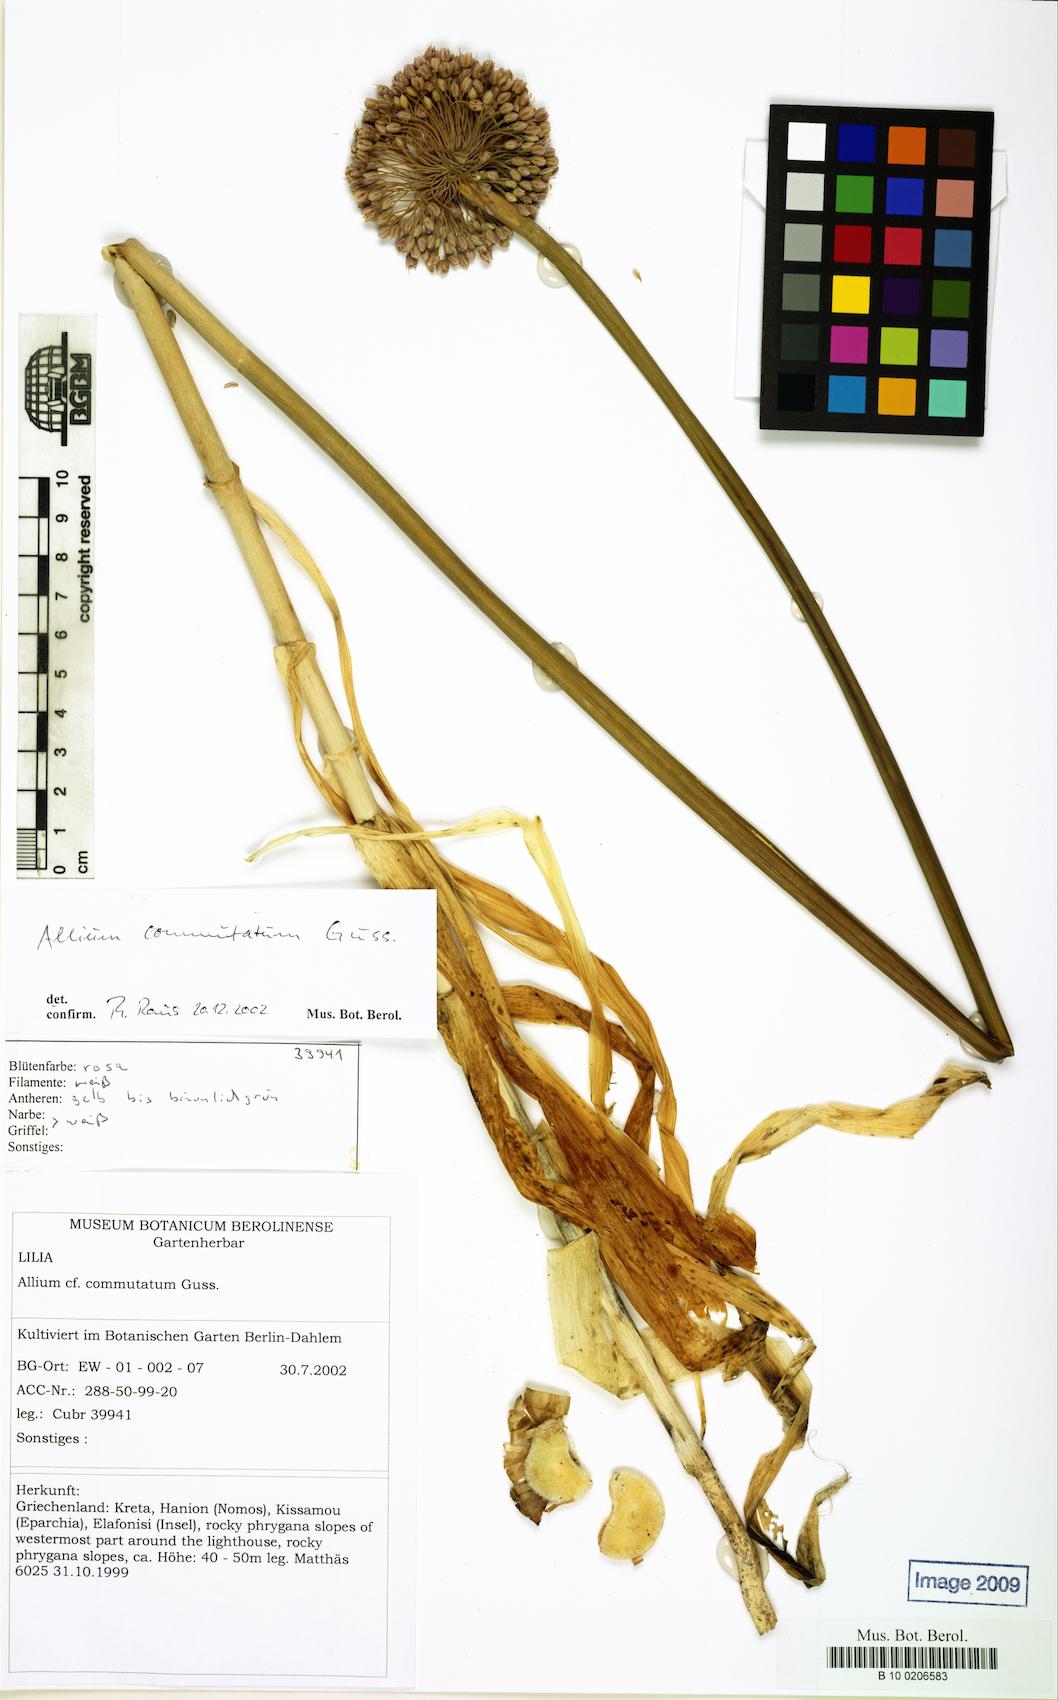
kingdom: Plantae
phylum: Tracheophyta
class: Liliopsida
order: Asparagales
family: Amaryllidaceae
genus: Allium
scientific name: Allium commutatum
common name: Sea garlic
